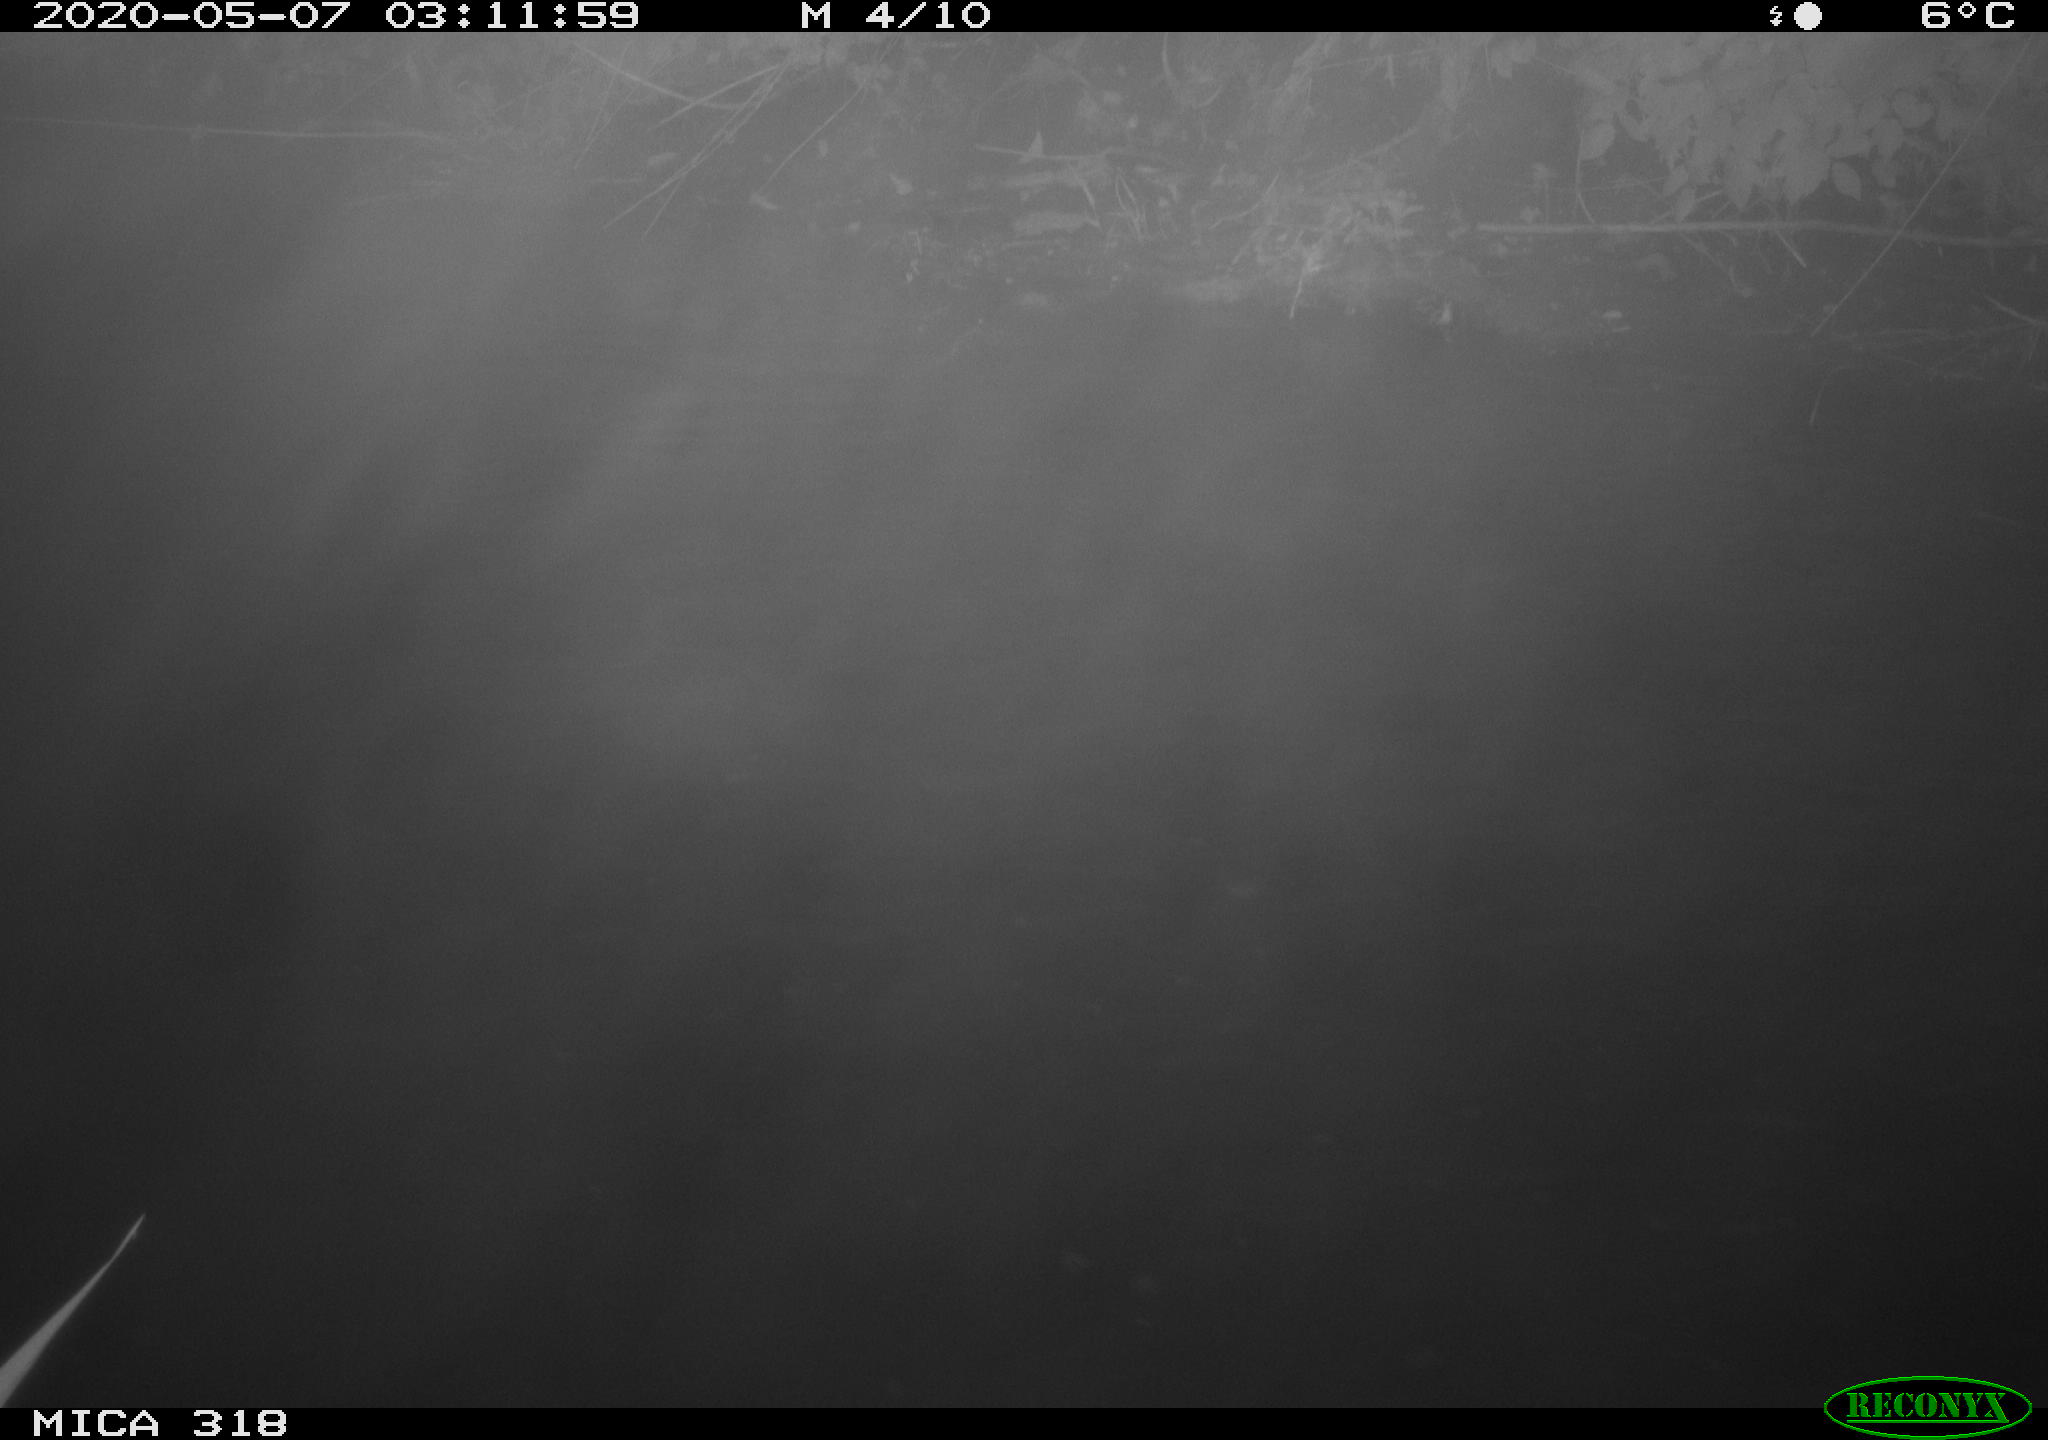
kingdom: Animalia
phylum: Chordata
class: Aves
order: Anseriformes
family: Anatidae
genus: Anas
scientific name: Anas platyrhynchos
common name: Mallard
